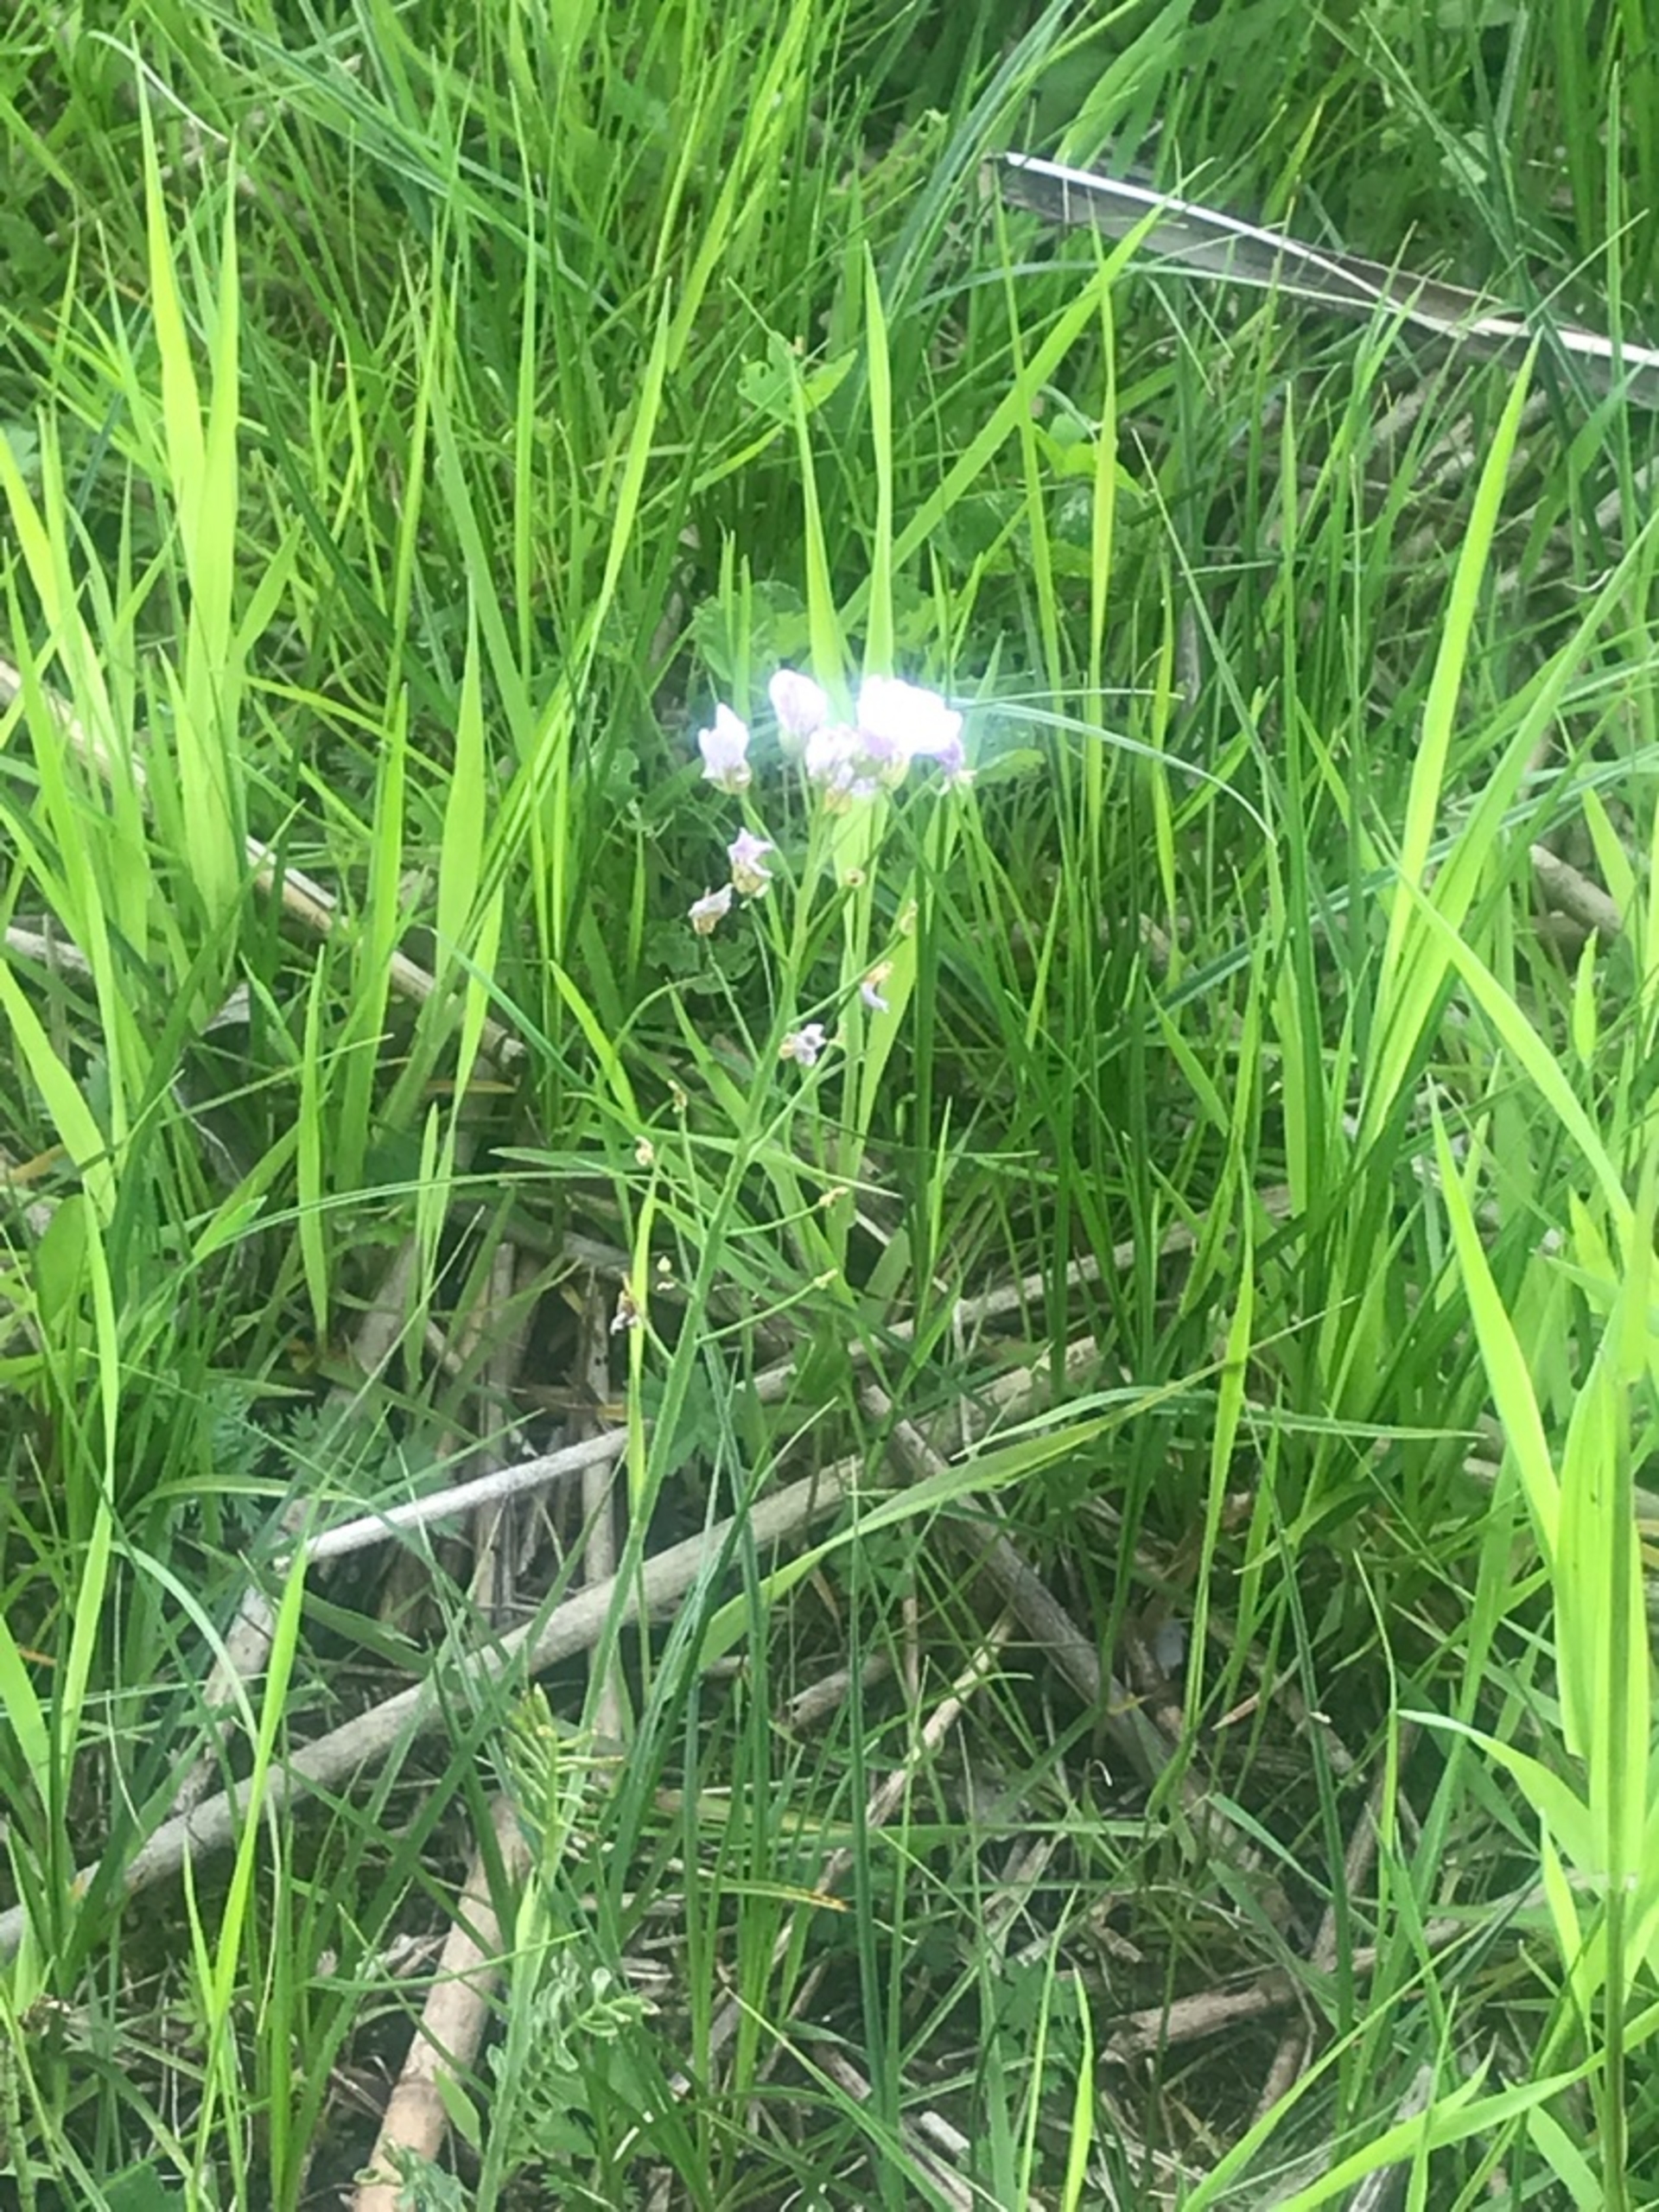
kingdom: Plantae
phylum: Tracheophyta
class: Magnoliopsida
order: Brassicales
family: Brassicaceae
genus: Cardamine
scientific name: Cardamine pratensis
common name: Engkarse
